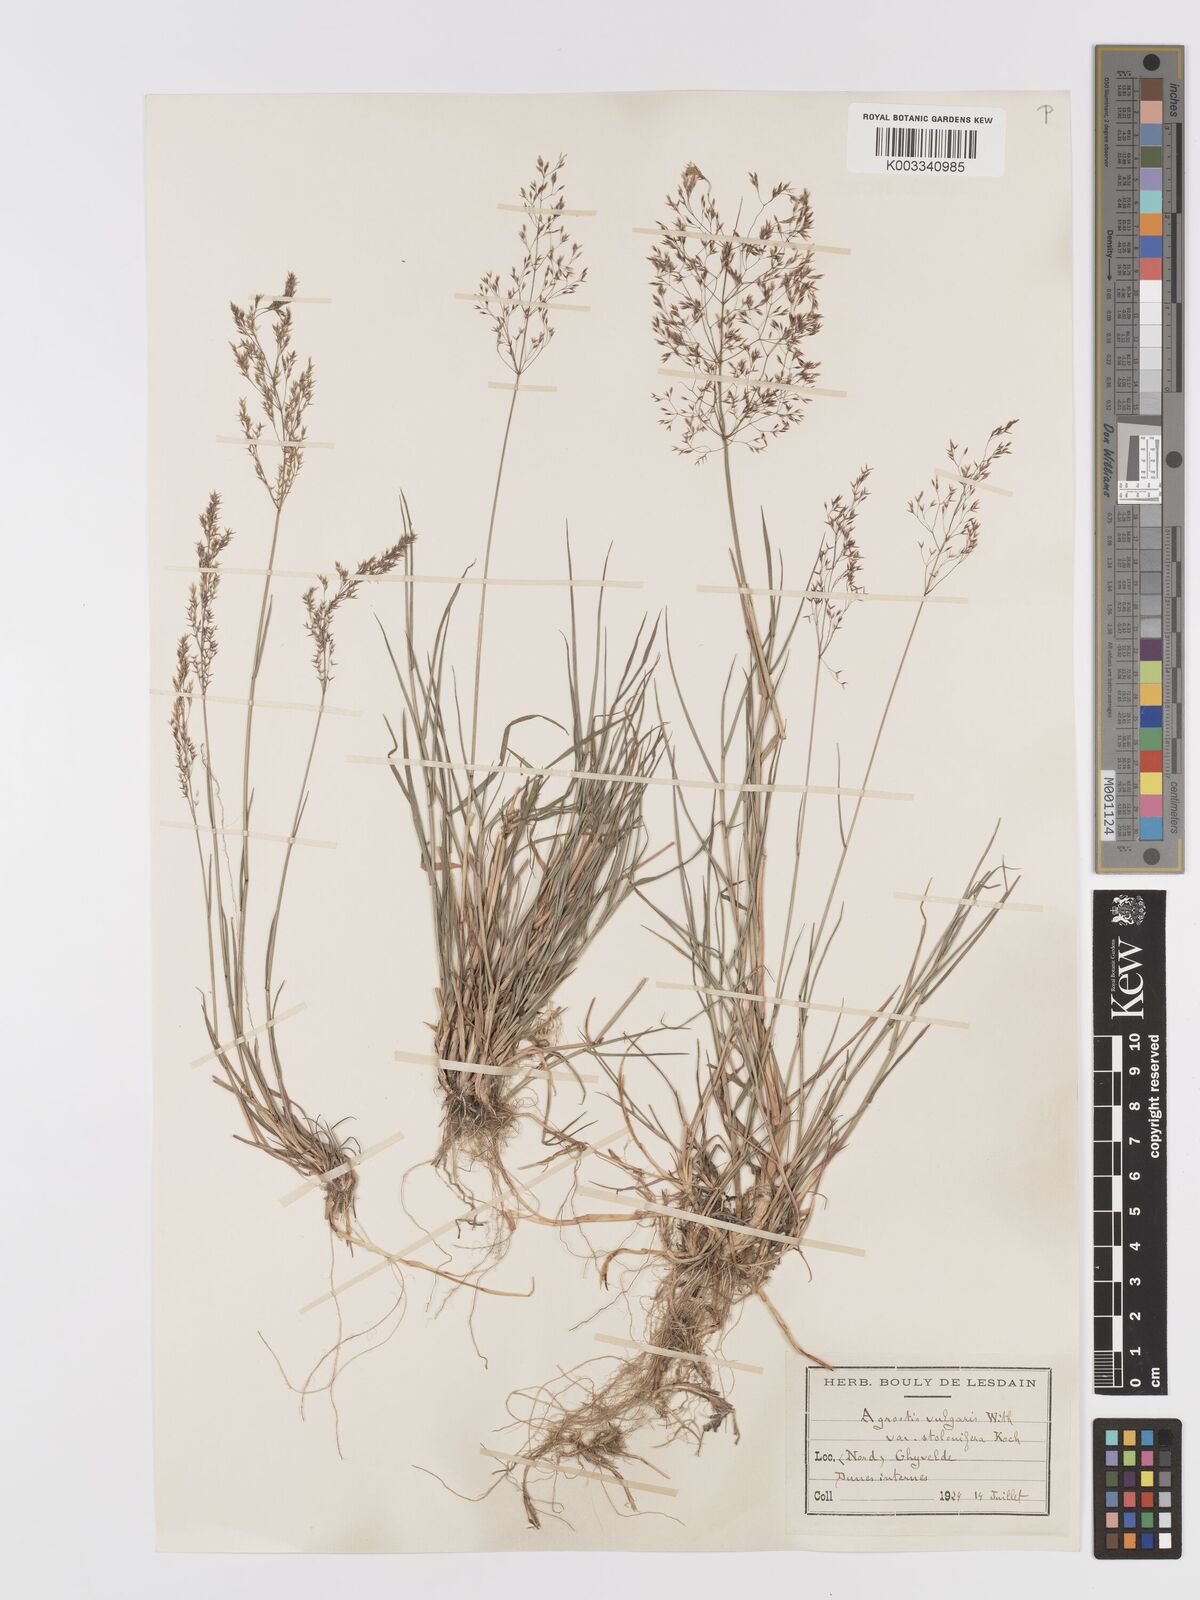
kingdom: Plantae
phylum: Tracheophyta
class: Liliopsida
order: Poales
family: Poaceae
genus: Agrostis
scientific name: Agrostis capillaris
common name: Colonial bentgrass
